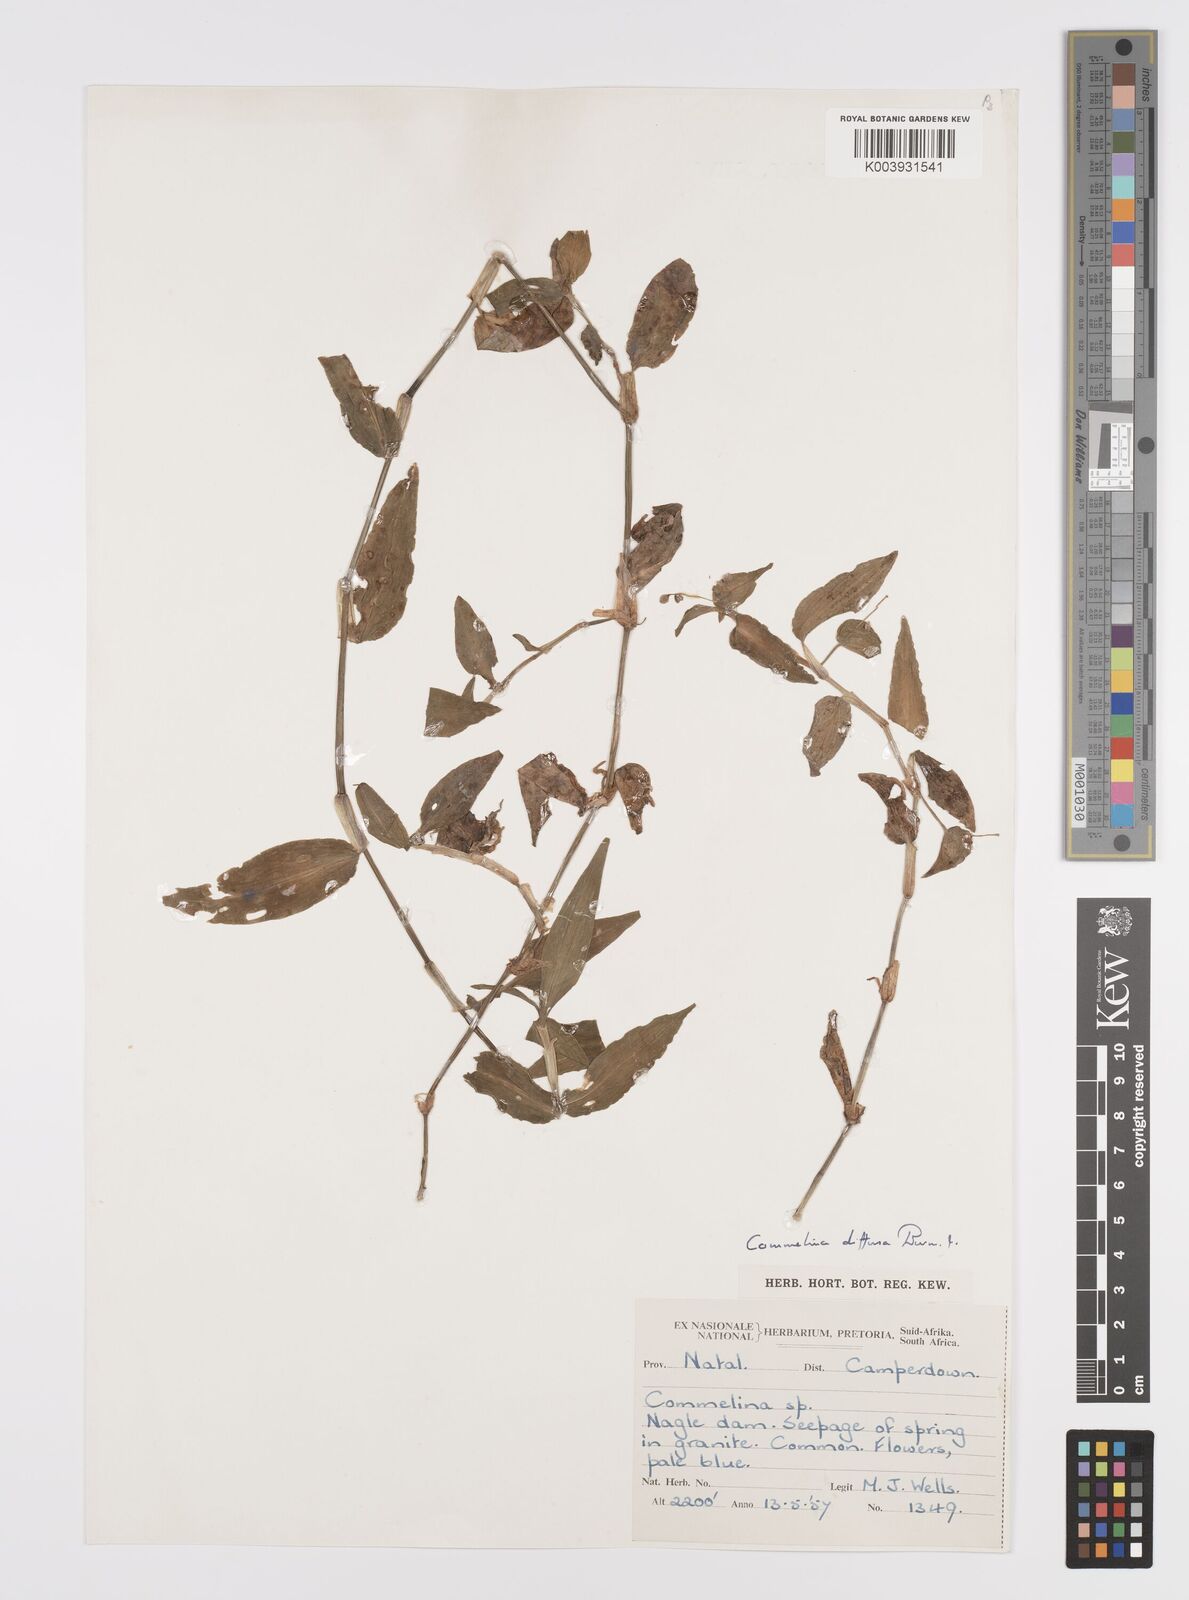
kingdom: Plantae
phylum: Tracheophyta
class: Liliopsida
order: Commelinales
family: Commelinaceae
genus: Commelina
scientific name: Commelina diffusa
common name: Climbing dayflower
